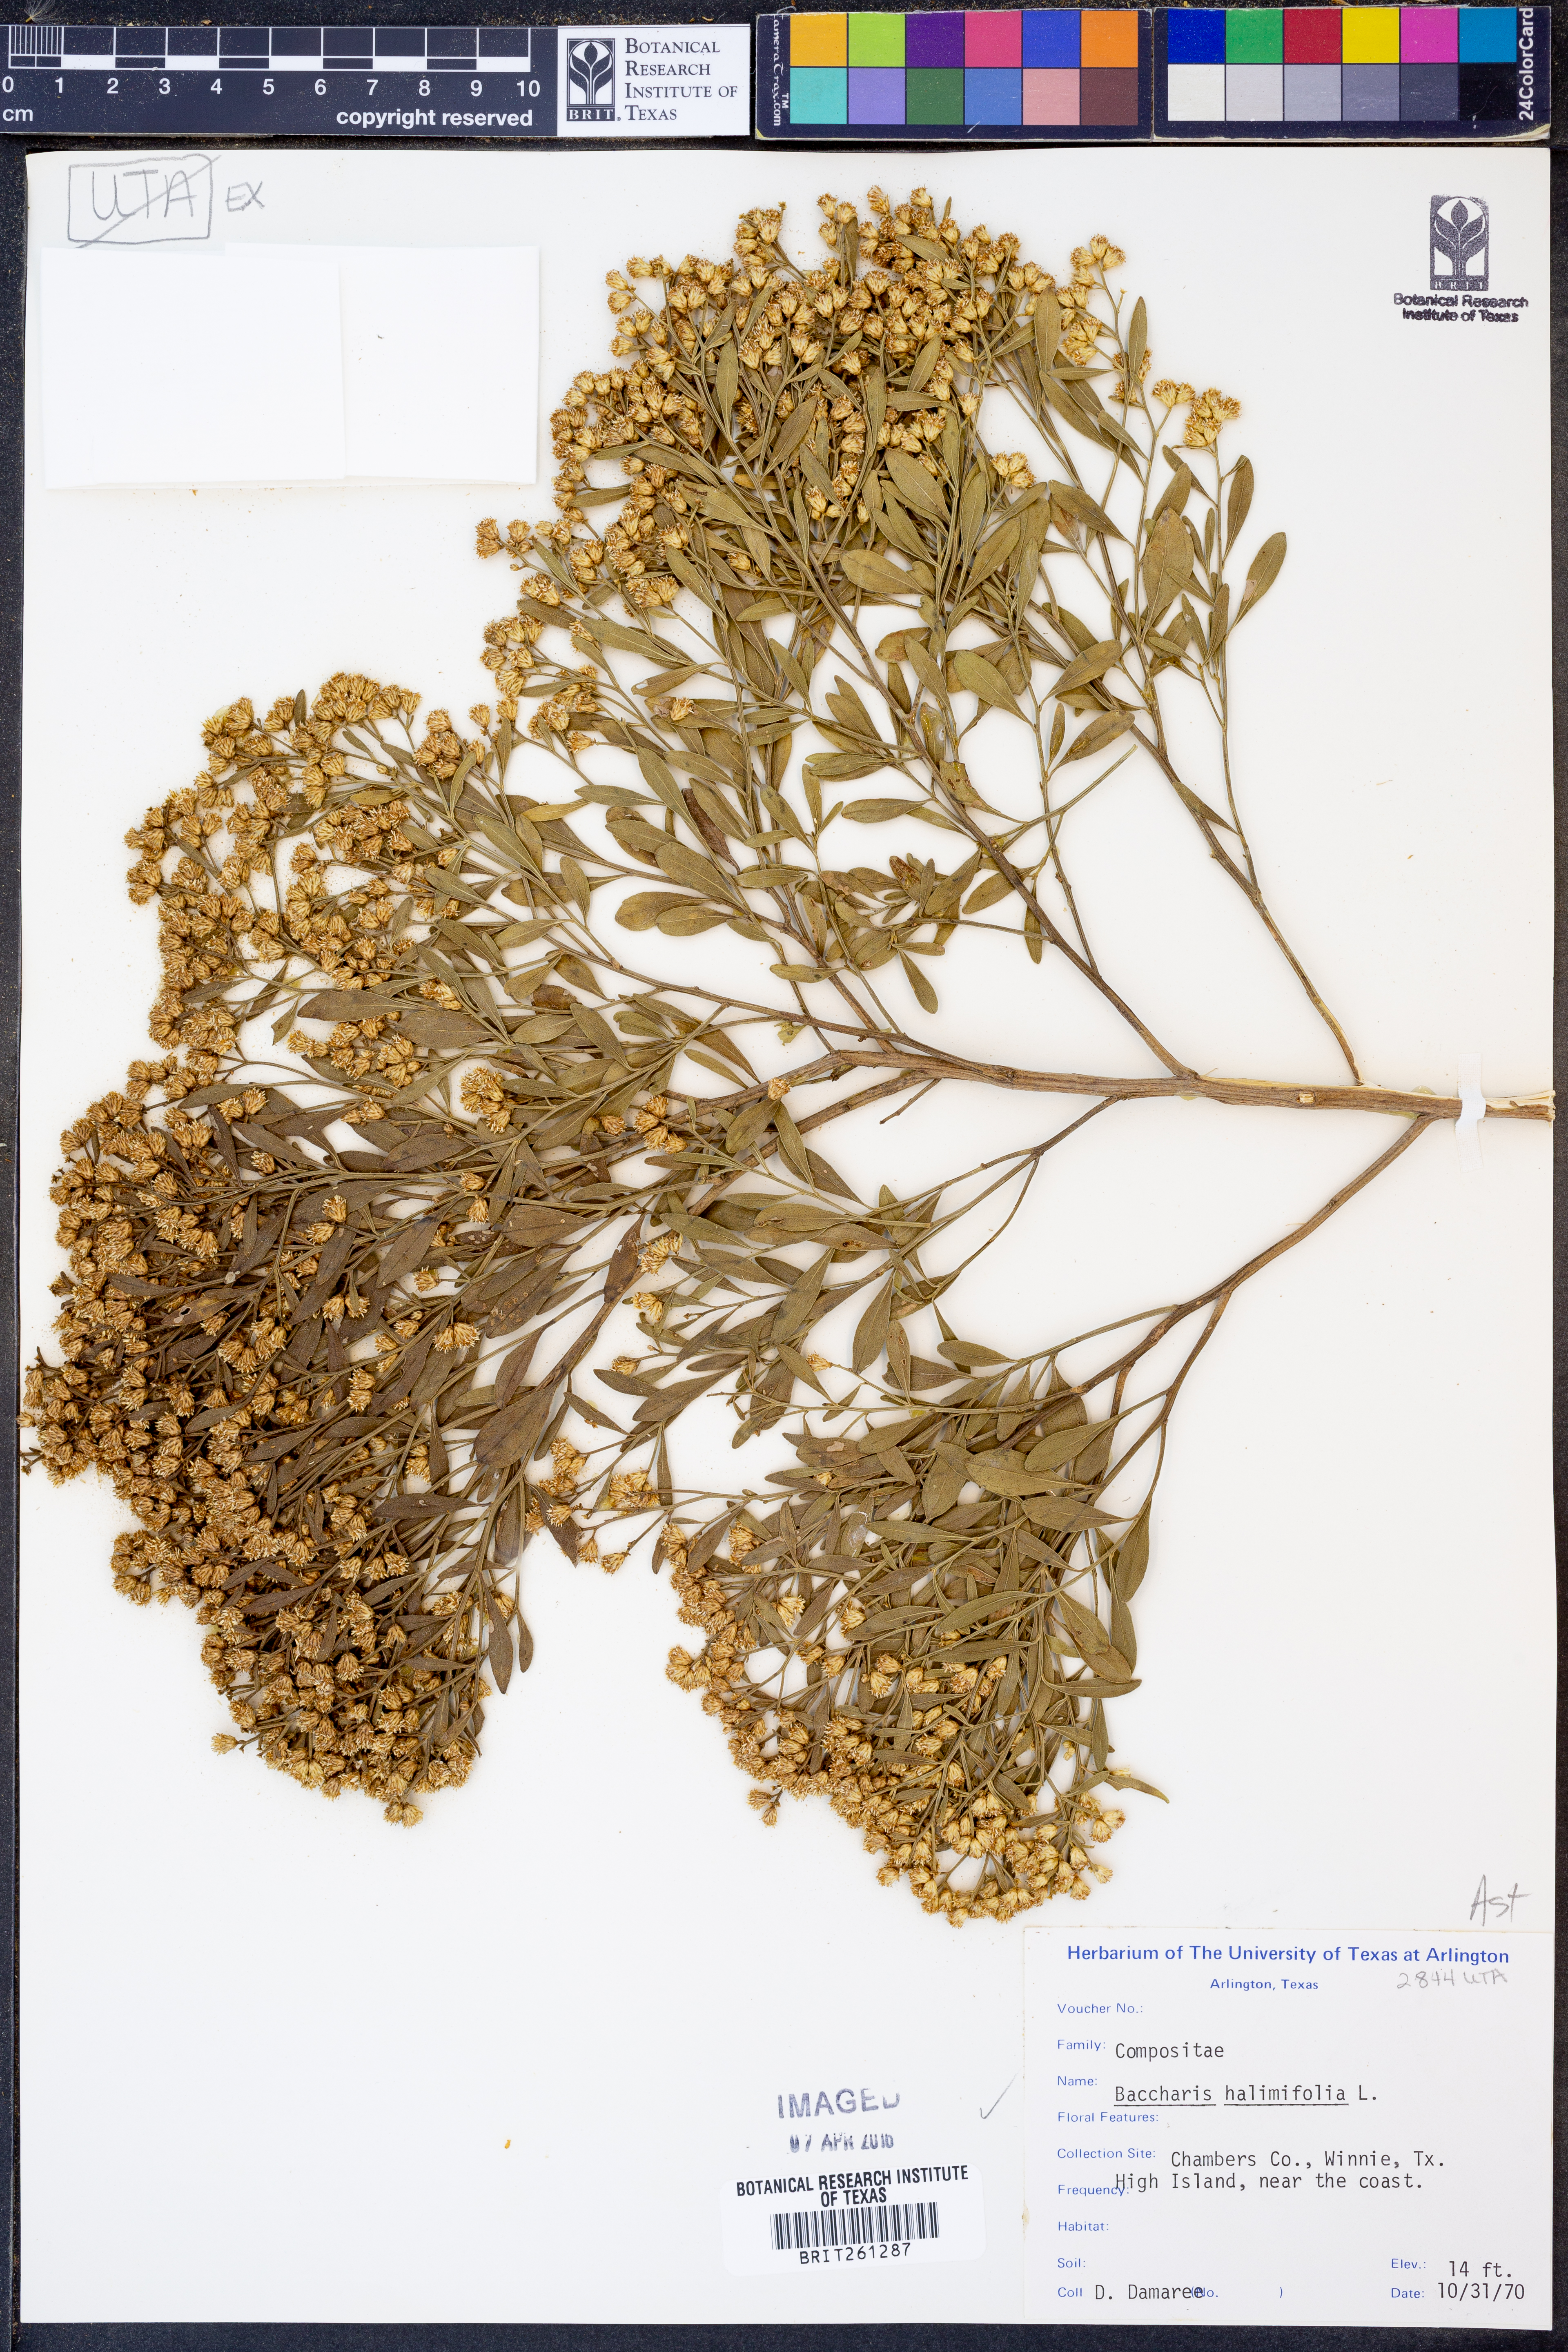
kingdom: Plantae
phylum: Tracheophyta
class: Magnoliopsida
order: Asterales
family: Asteraceae
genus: Nidorella
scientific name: Nidorella ivifolia
